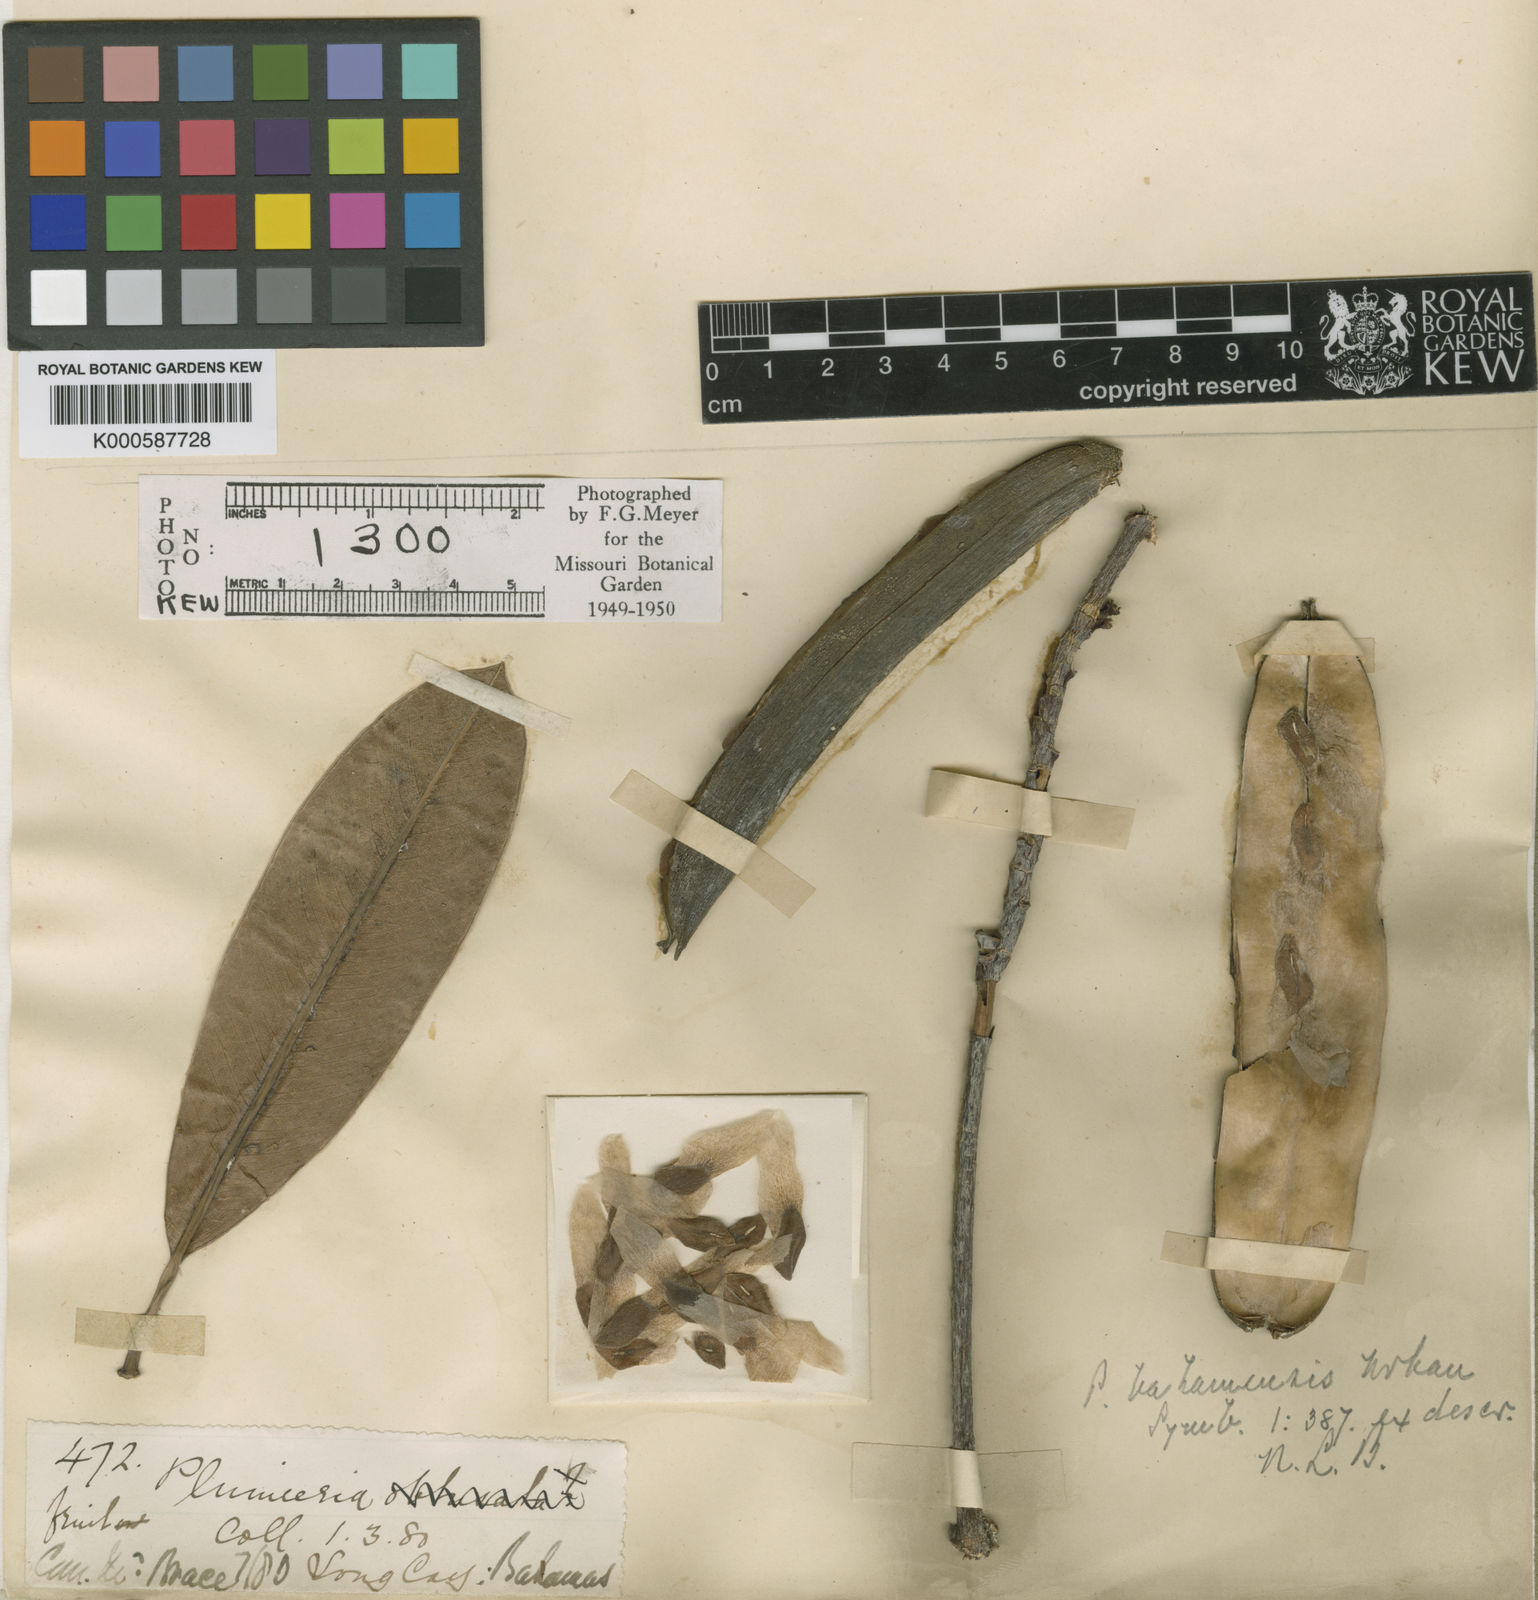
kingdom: Plantae
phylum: Tracheophyta
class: Magnoliopsida
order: Gentianales
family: Apocynaceae
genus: Plumeria
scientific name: Plumeria obtusa
